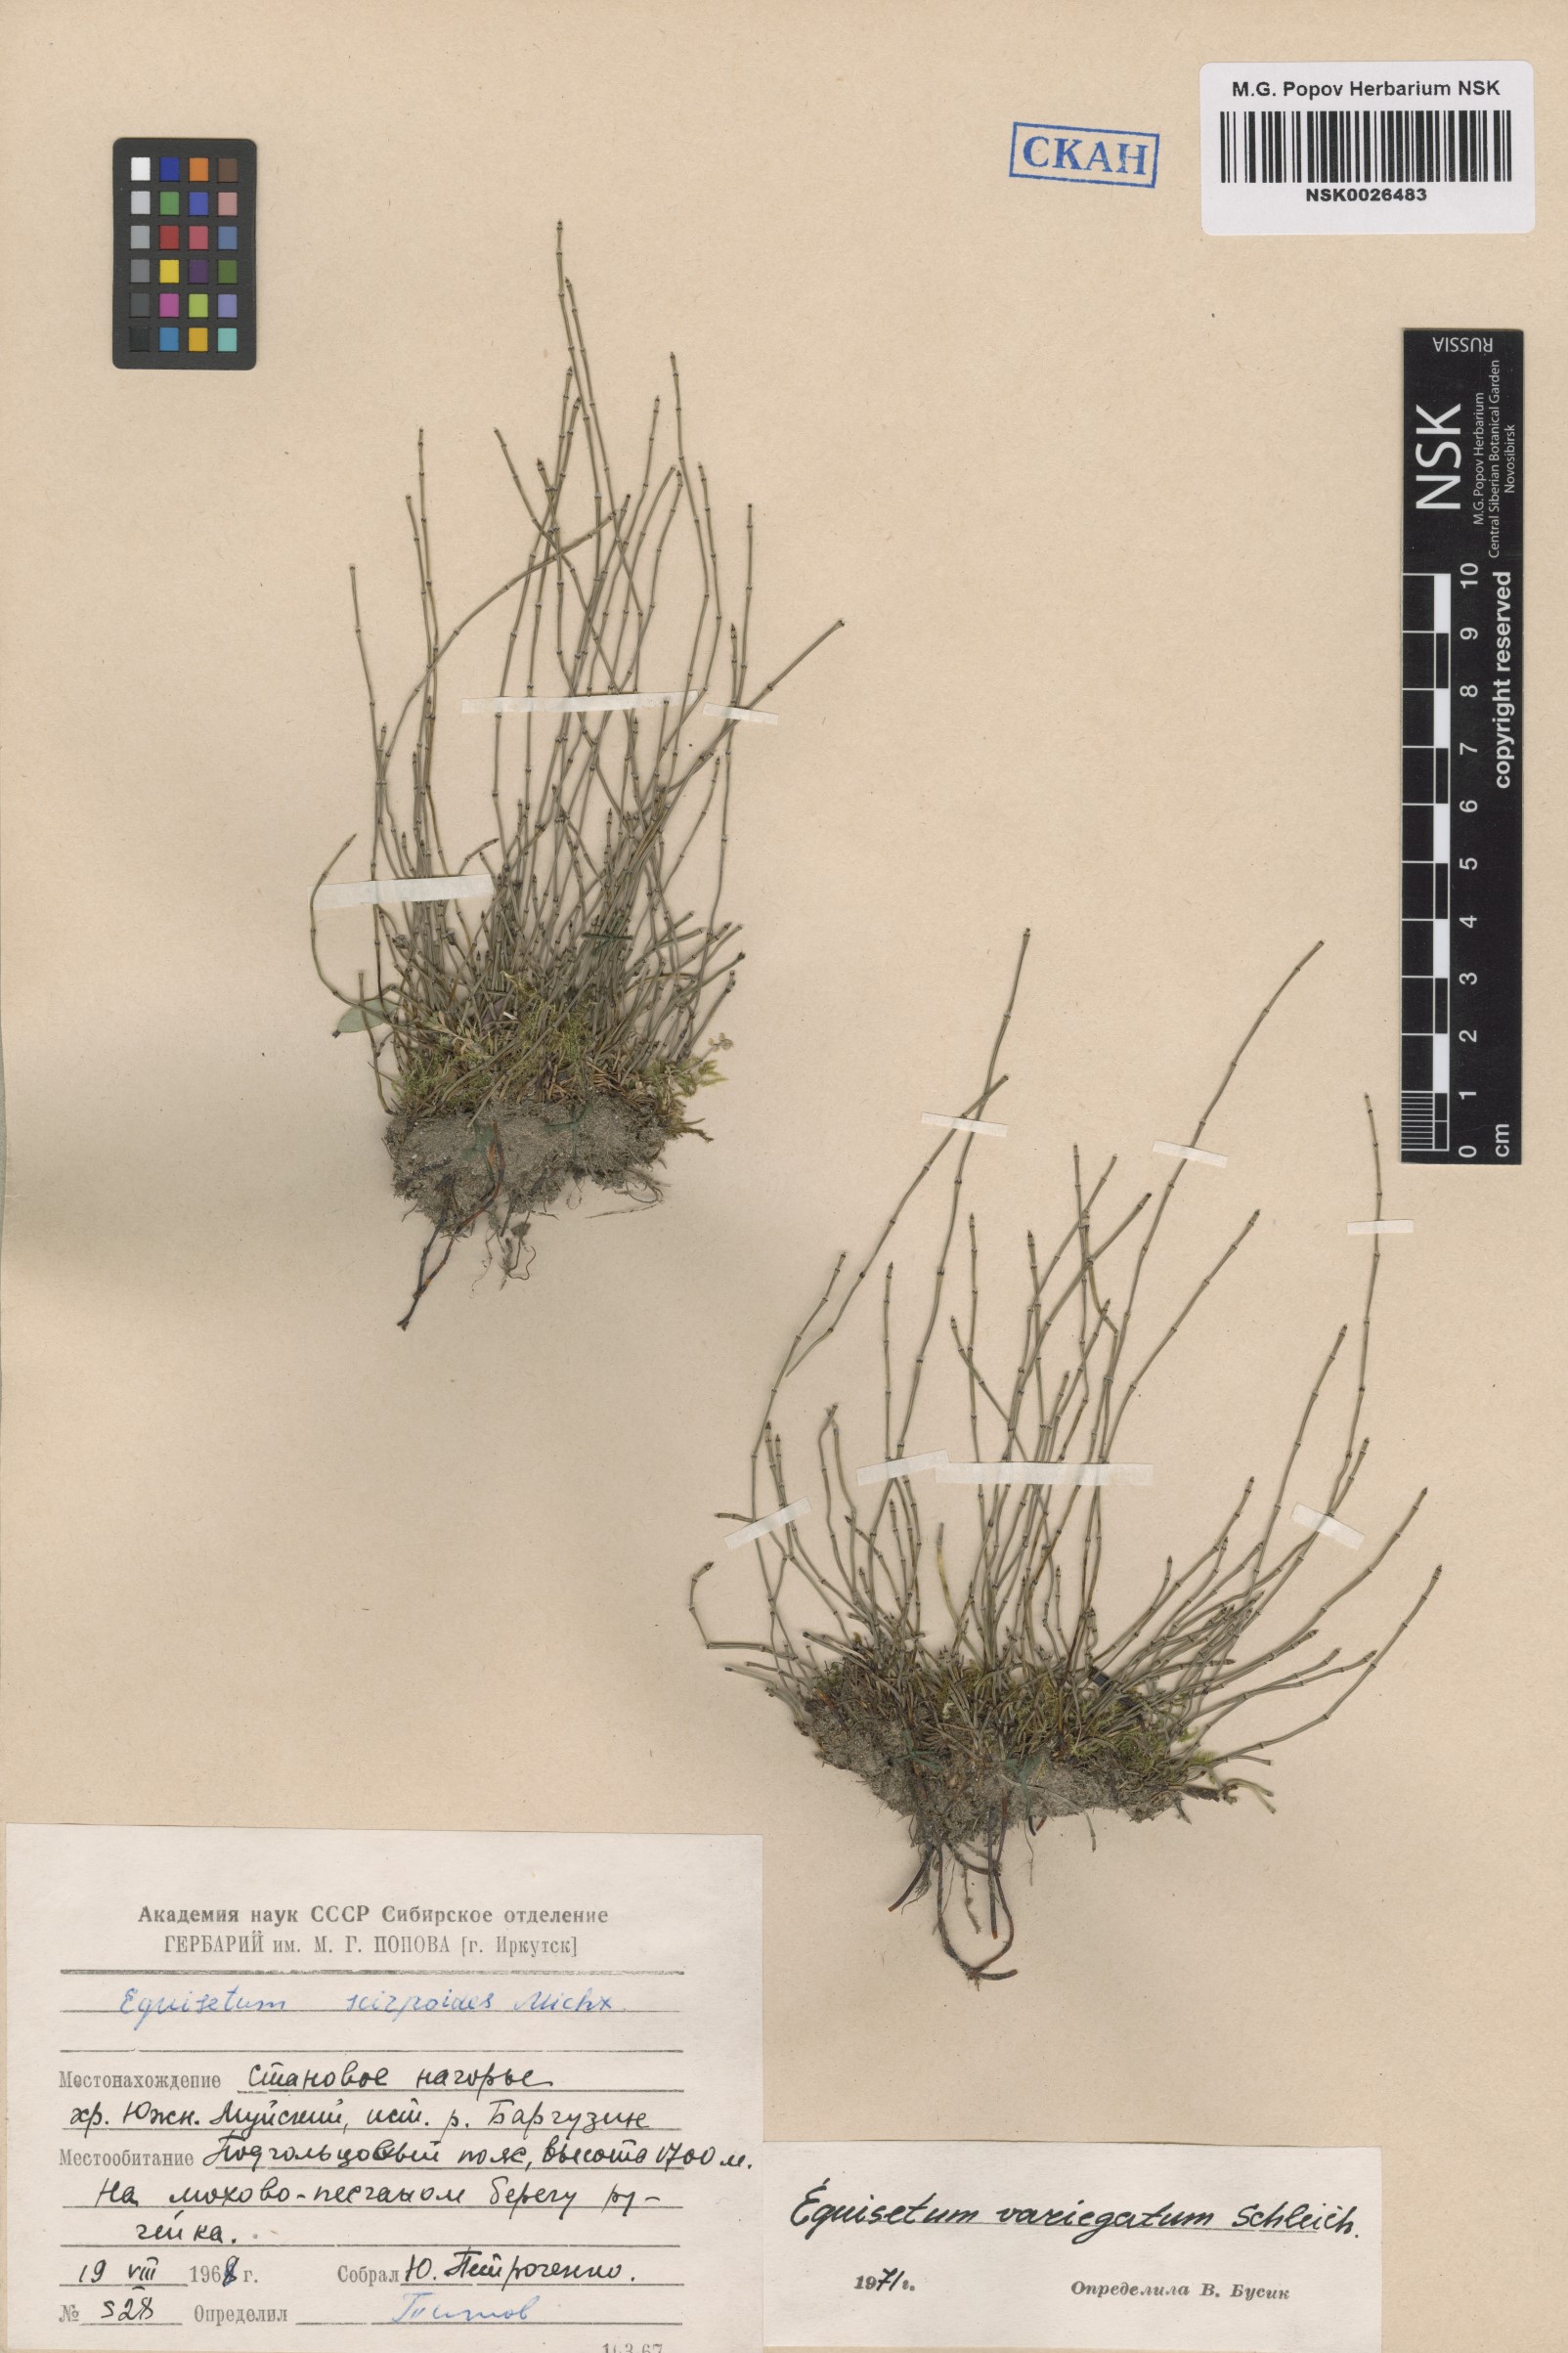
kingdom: Plantae
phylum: Tracheophyta
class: Polypodiopsida
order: Equisetales
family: Equisetaceae
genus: Equisetum
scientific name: Equisetum variegatum
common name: Variegated horsetail
